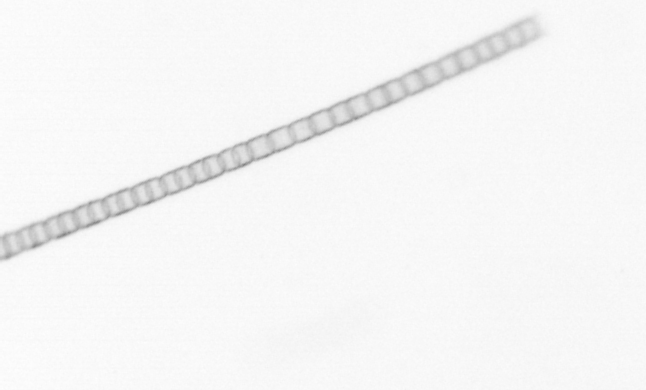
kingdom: Chromista
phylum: Ochrophyta
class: Bacillariophyceae
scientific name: Bacillariophyceae
